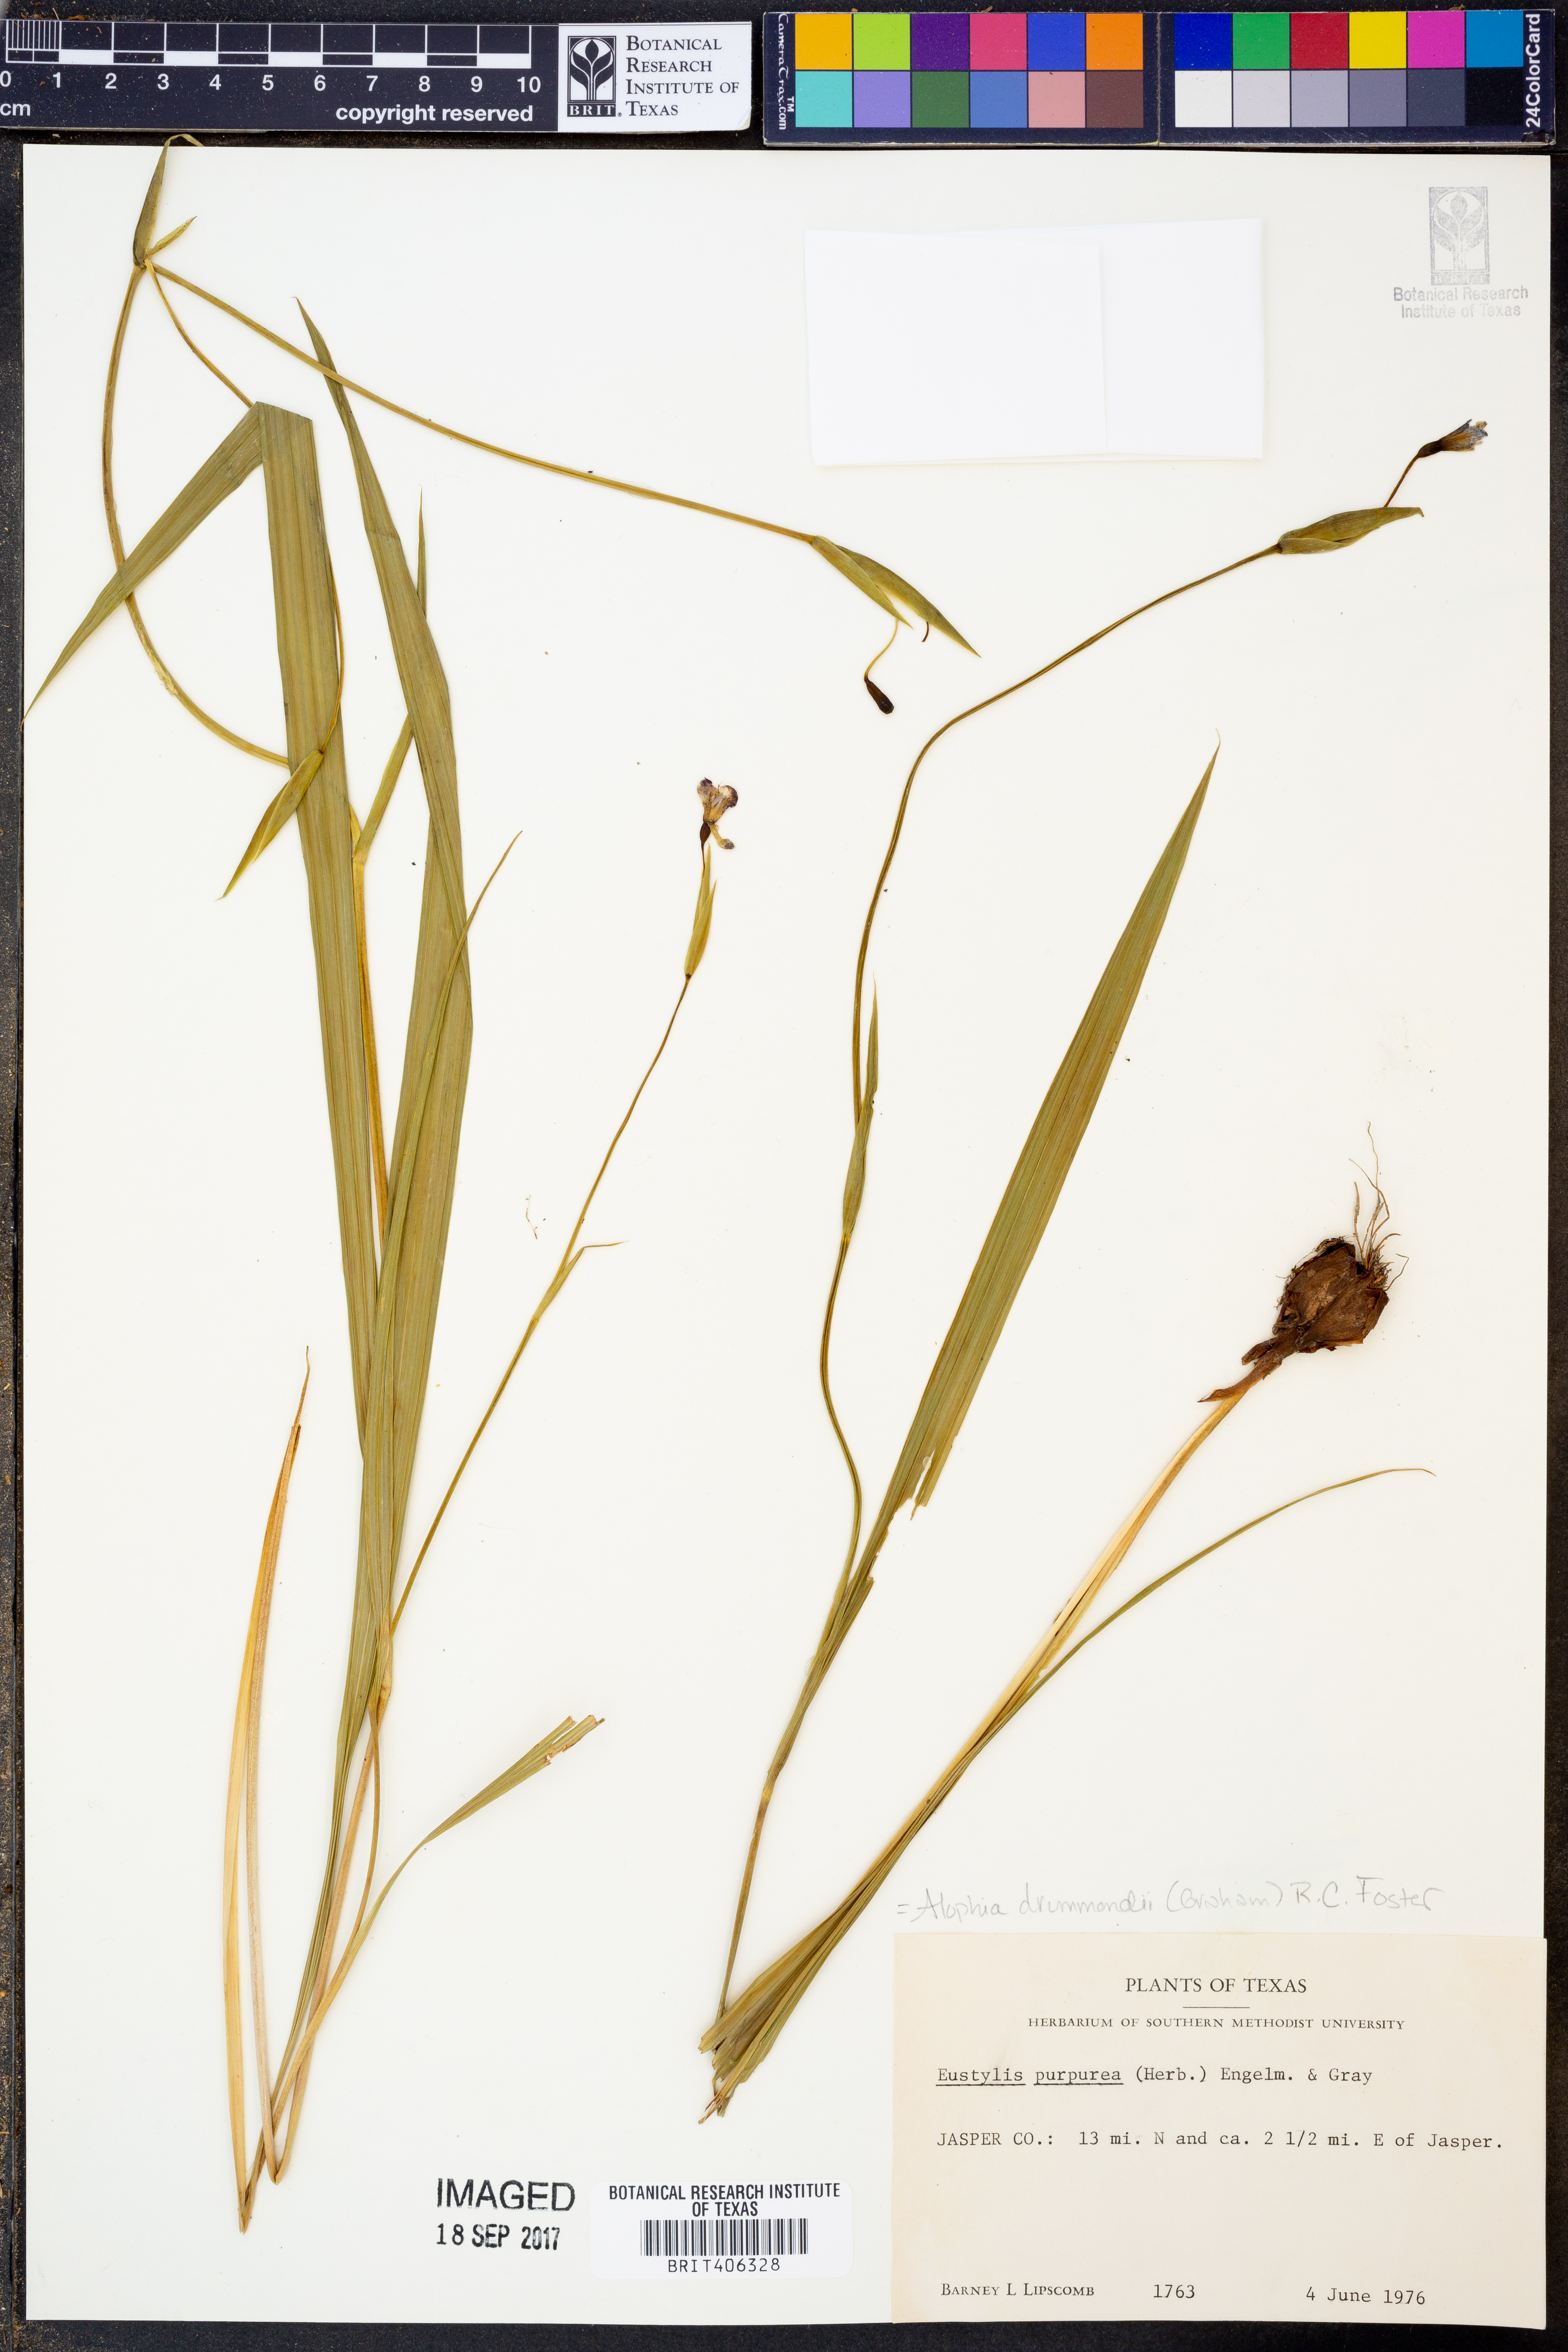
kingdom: Plantae
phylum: Tracheophyta
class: Liliopsida
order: Asparagales
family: Iridaceae
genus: Alophia
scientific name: Alophia drummondii
